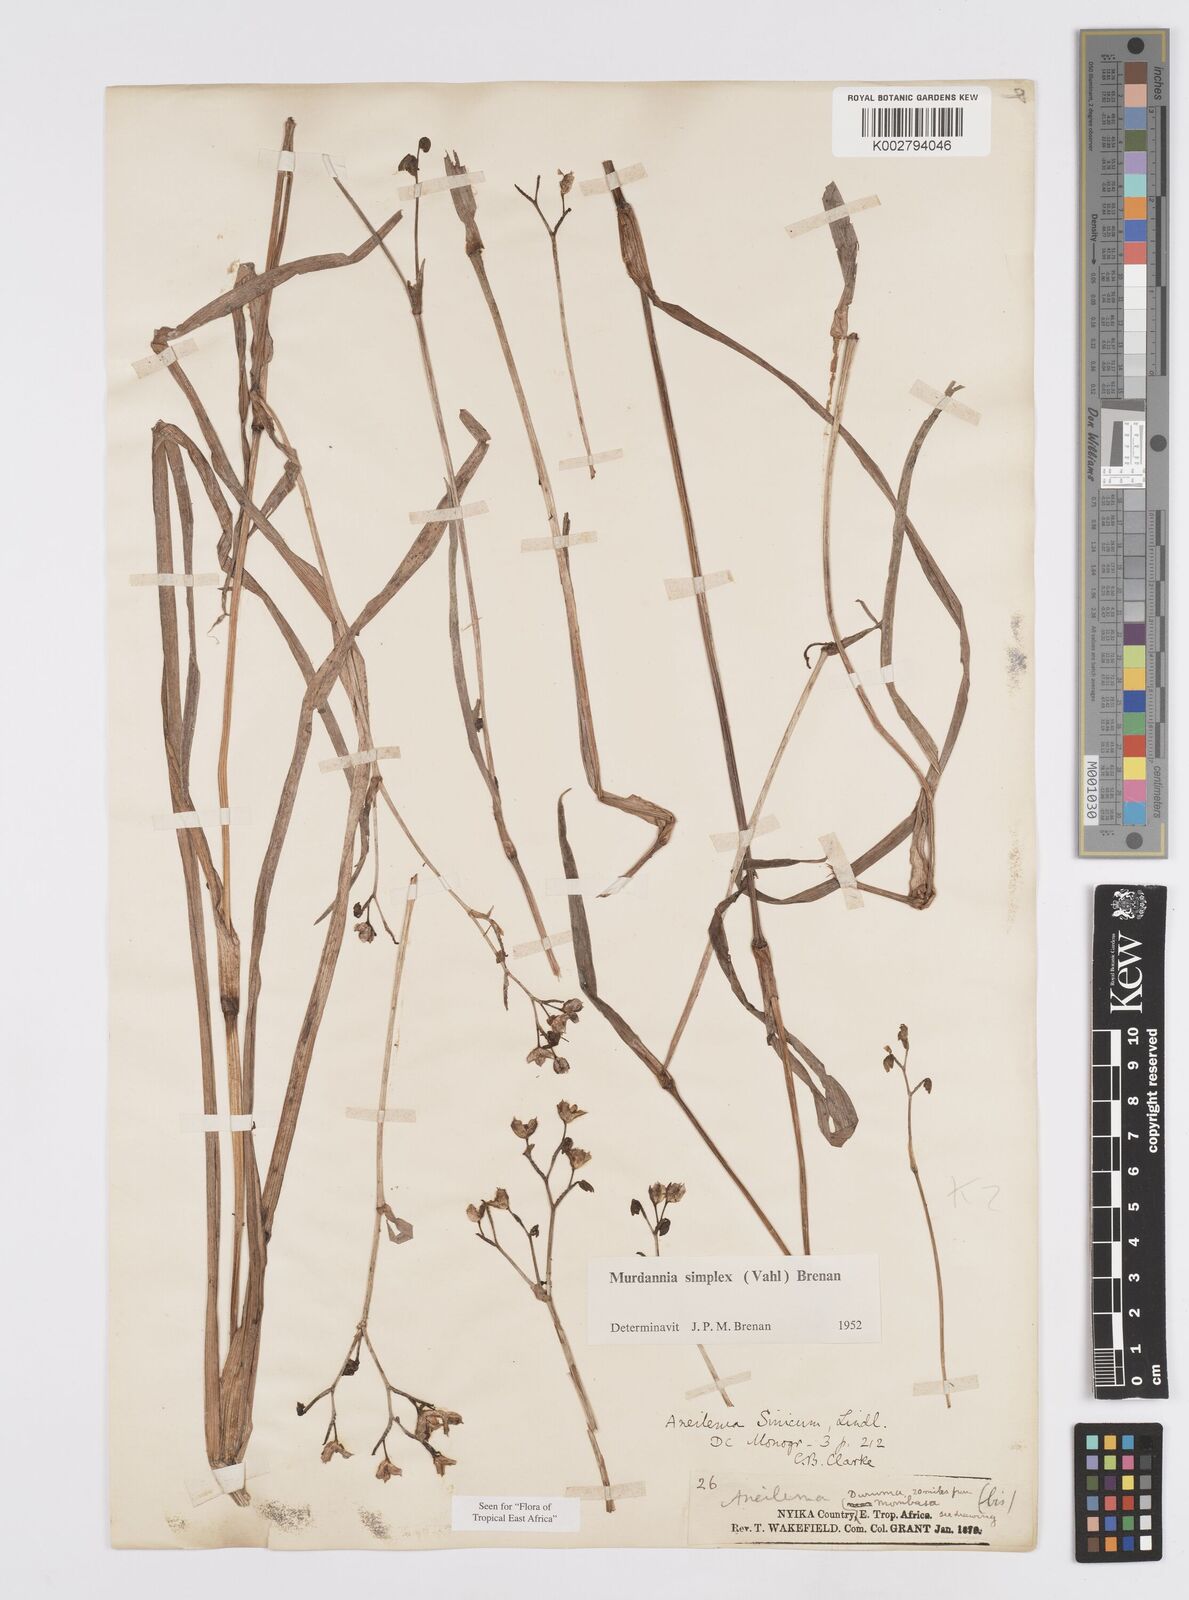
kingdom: Plantae
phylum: Tracheophyta
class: Liliopsida
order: Commelinales
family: Commelinaceae
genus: Murdannia
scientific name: Murdannia simplex
